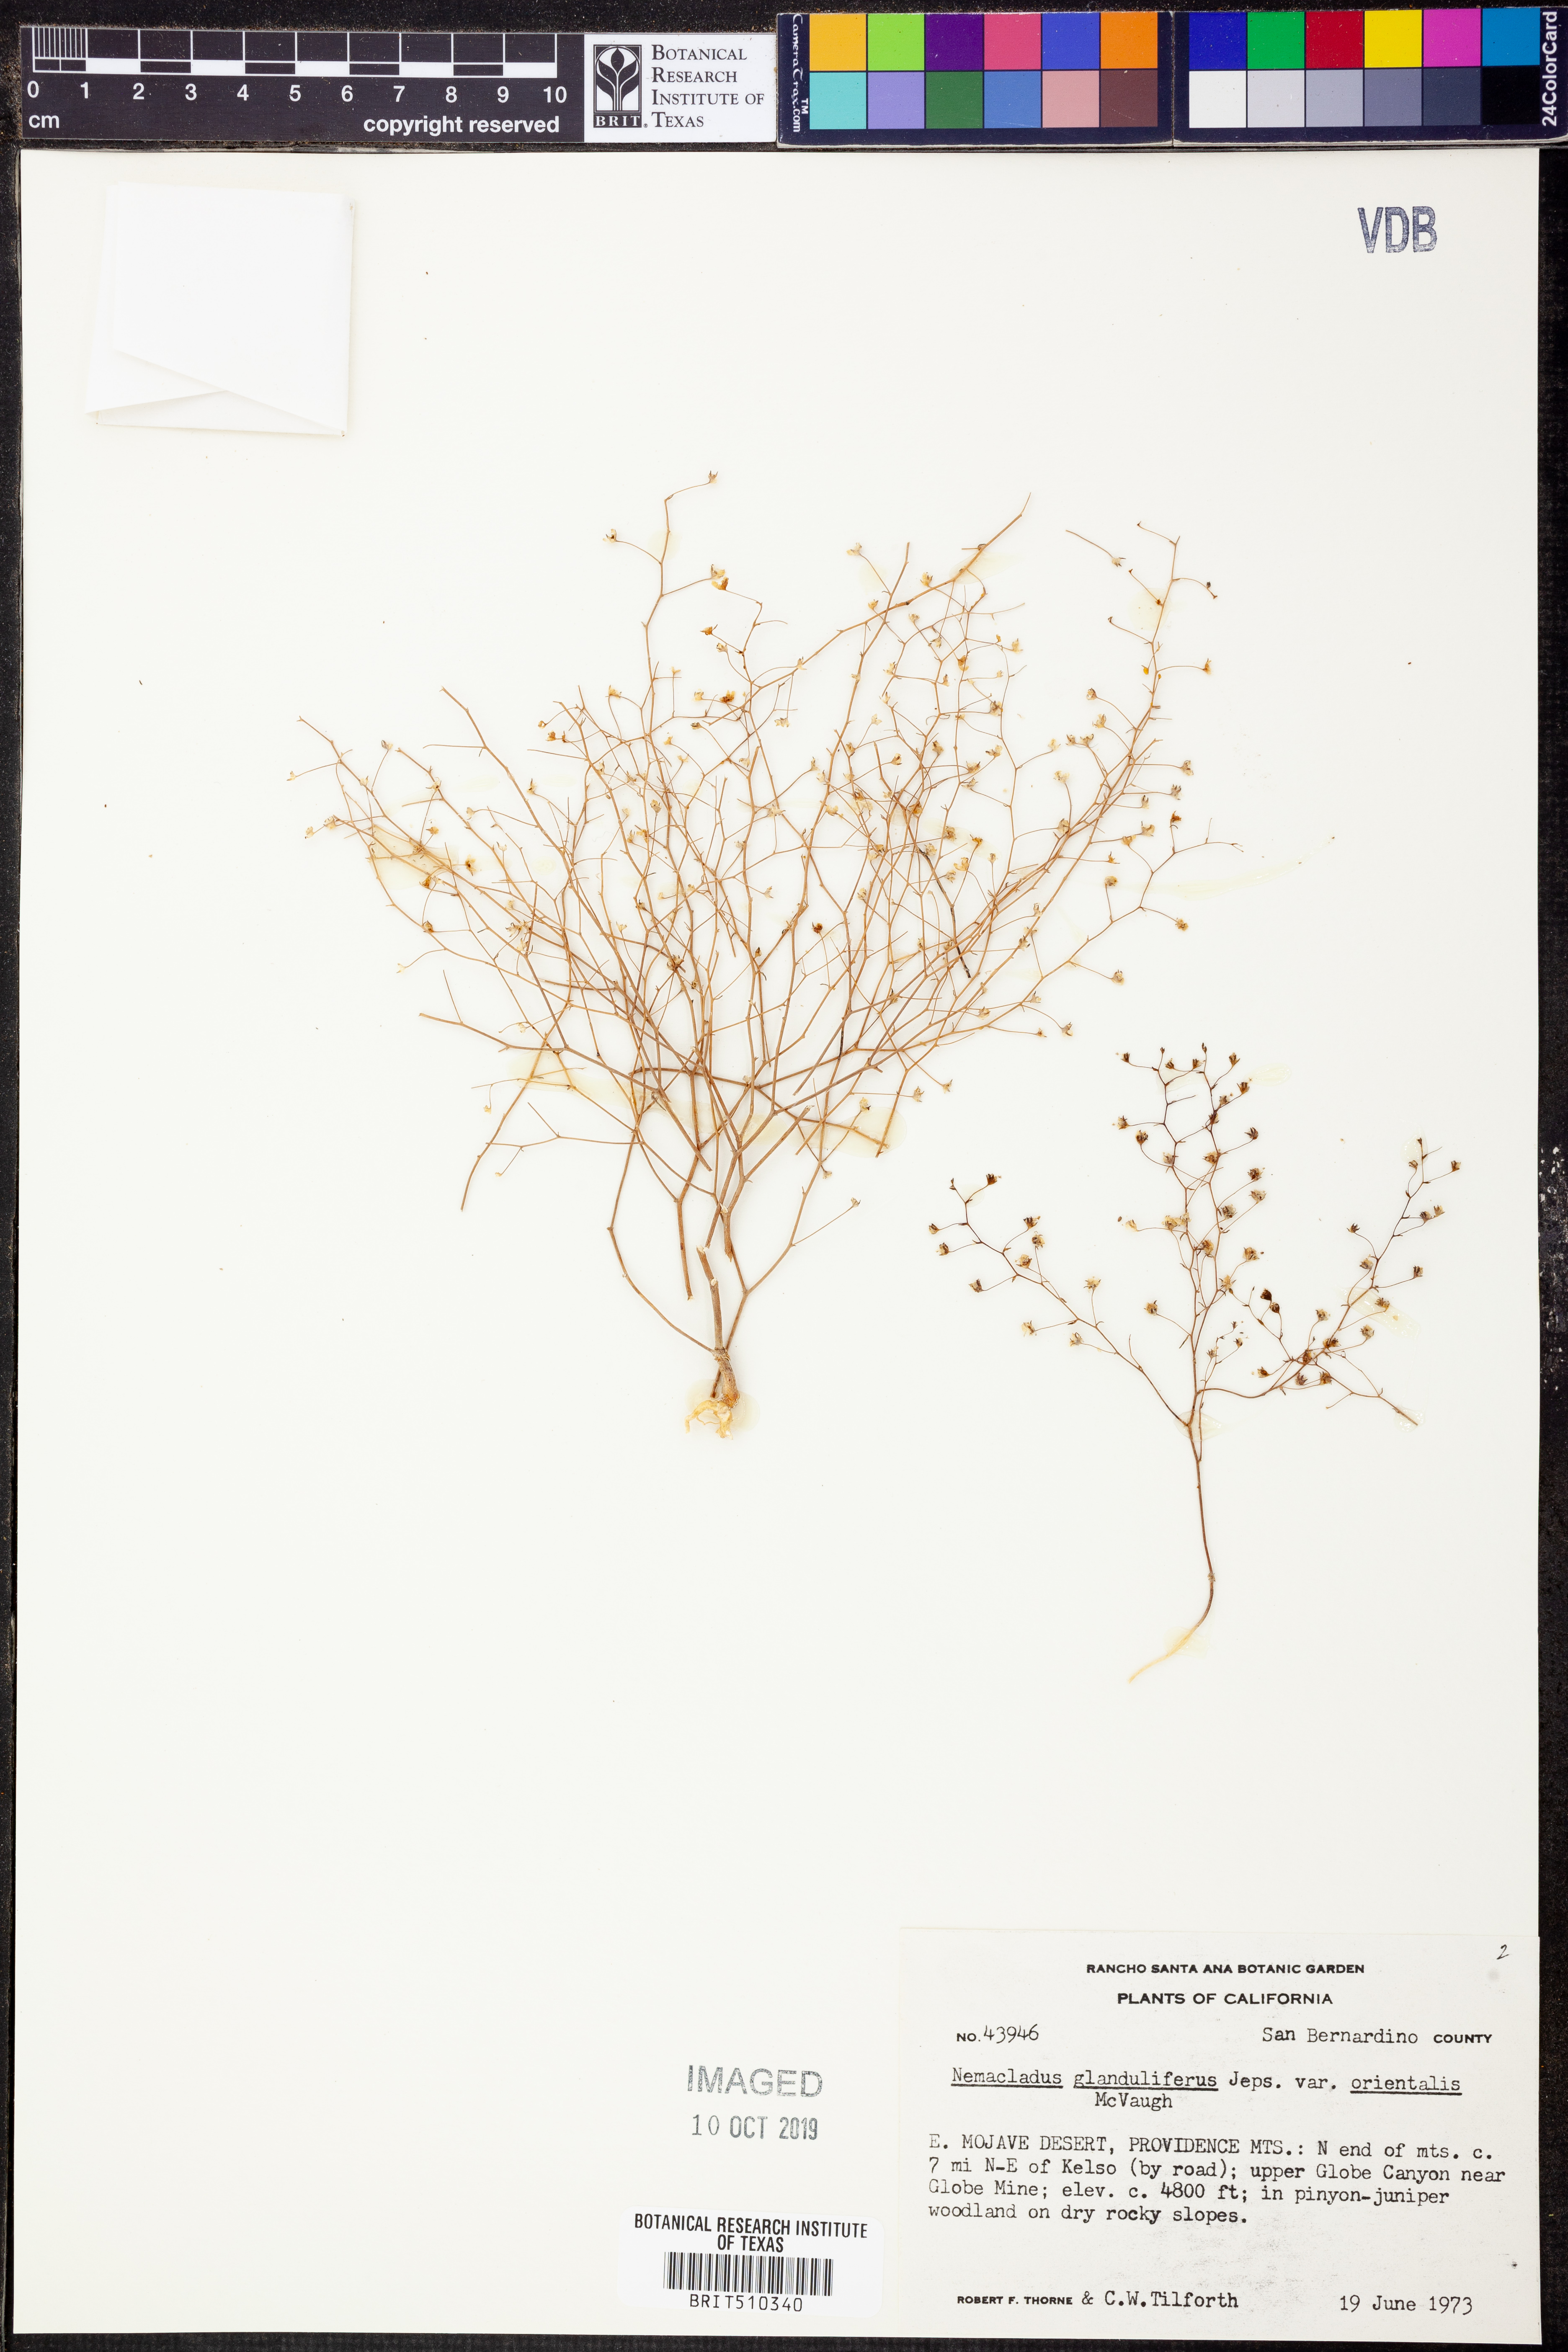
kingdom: Plantae
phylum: Tracheophyta
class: Magnoliopsida
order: Asterales
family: Campanulaceae
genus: Nemacladus
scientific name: Nemacladus orientalis
